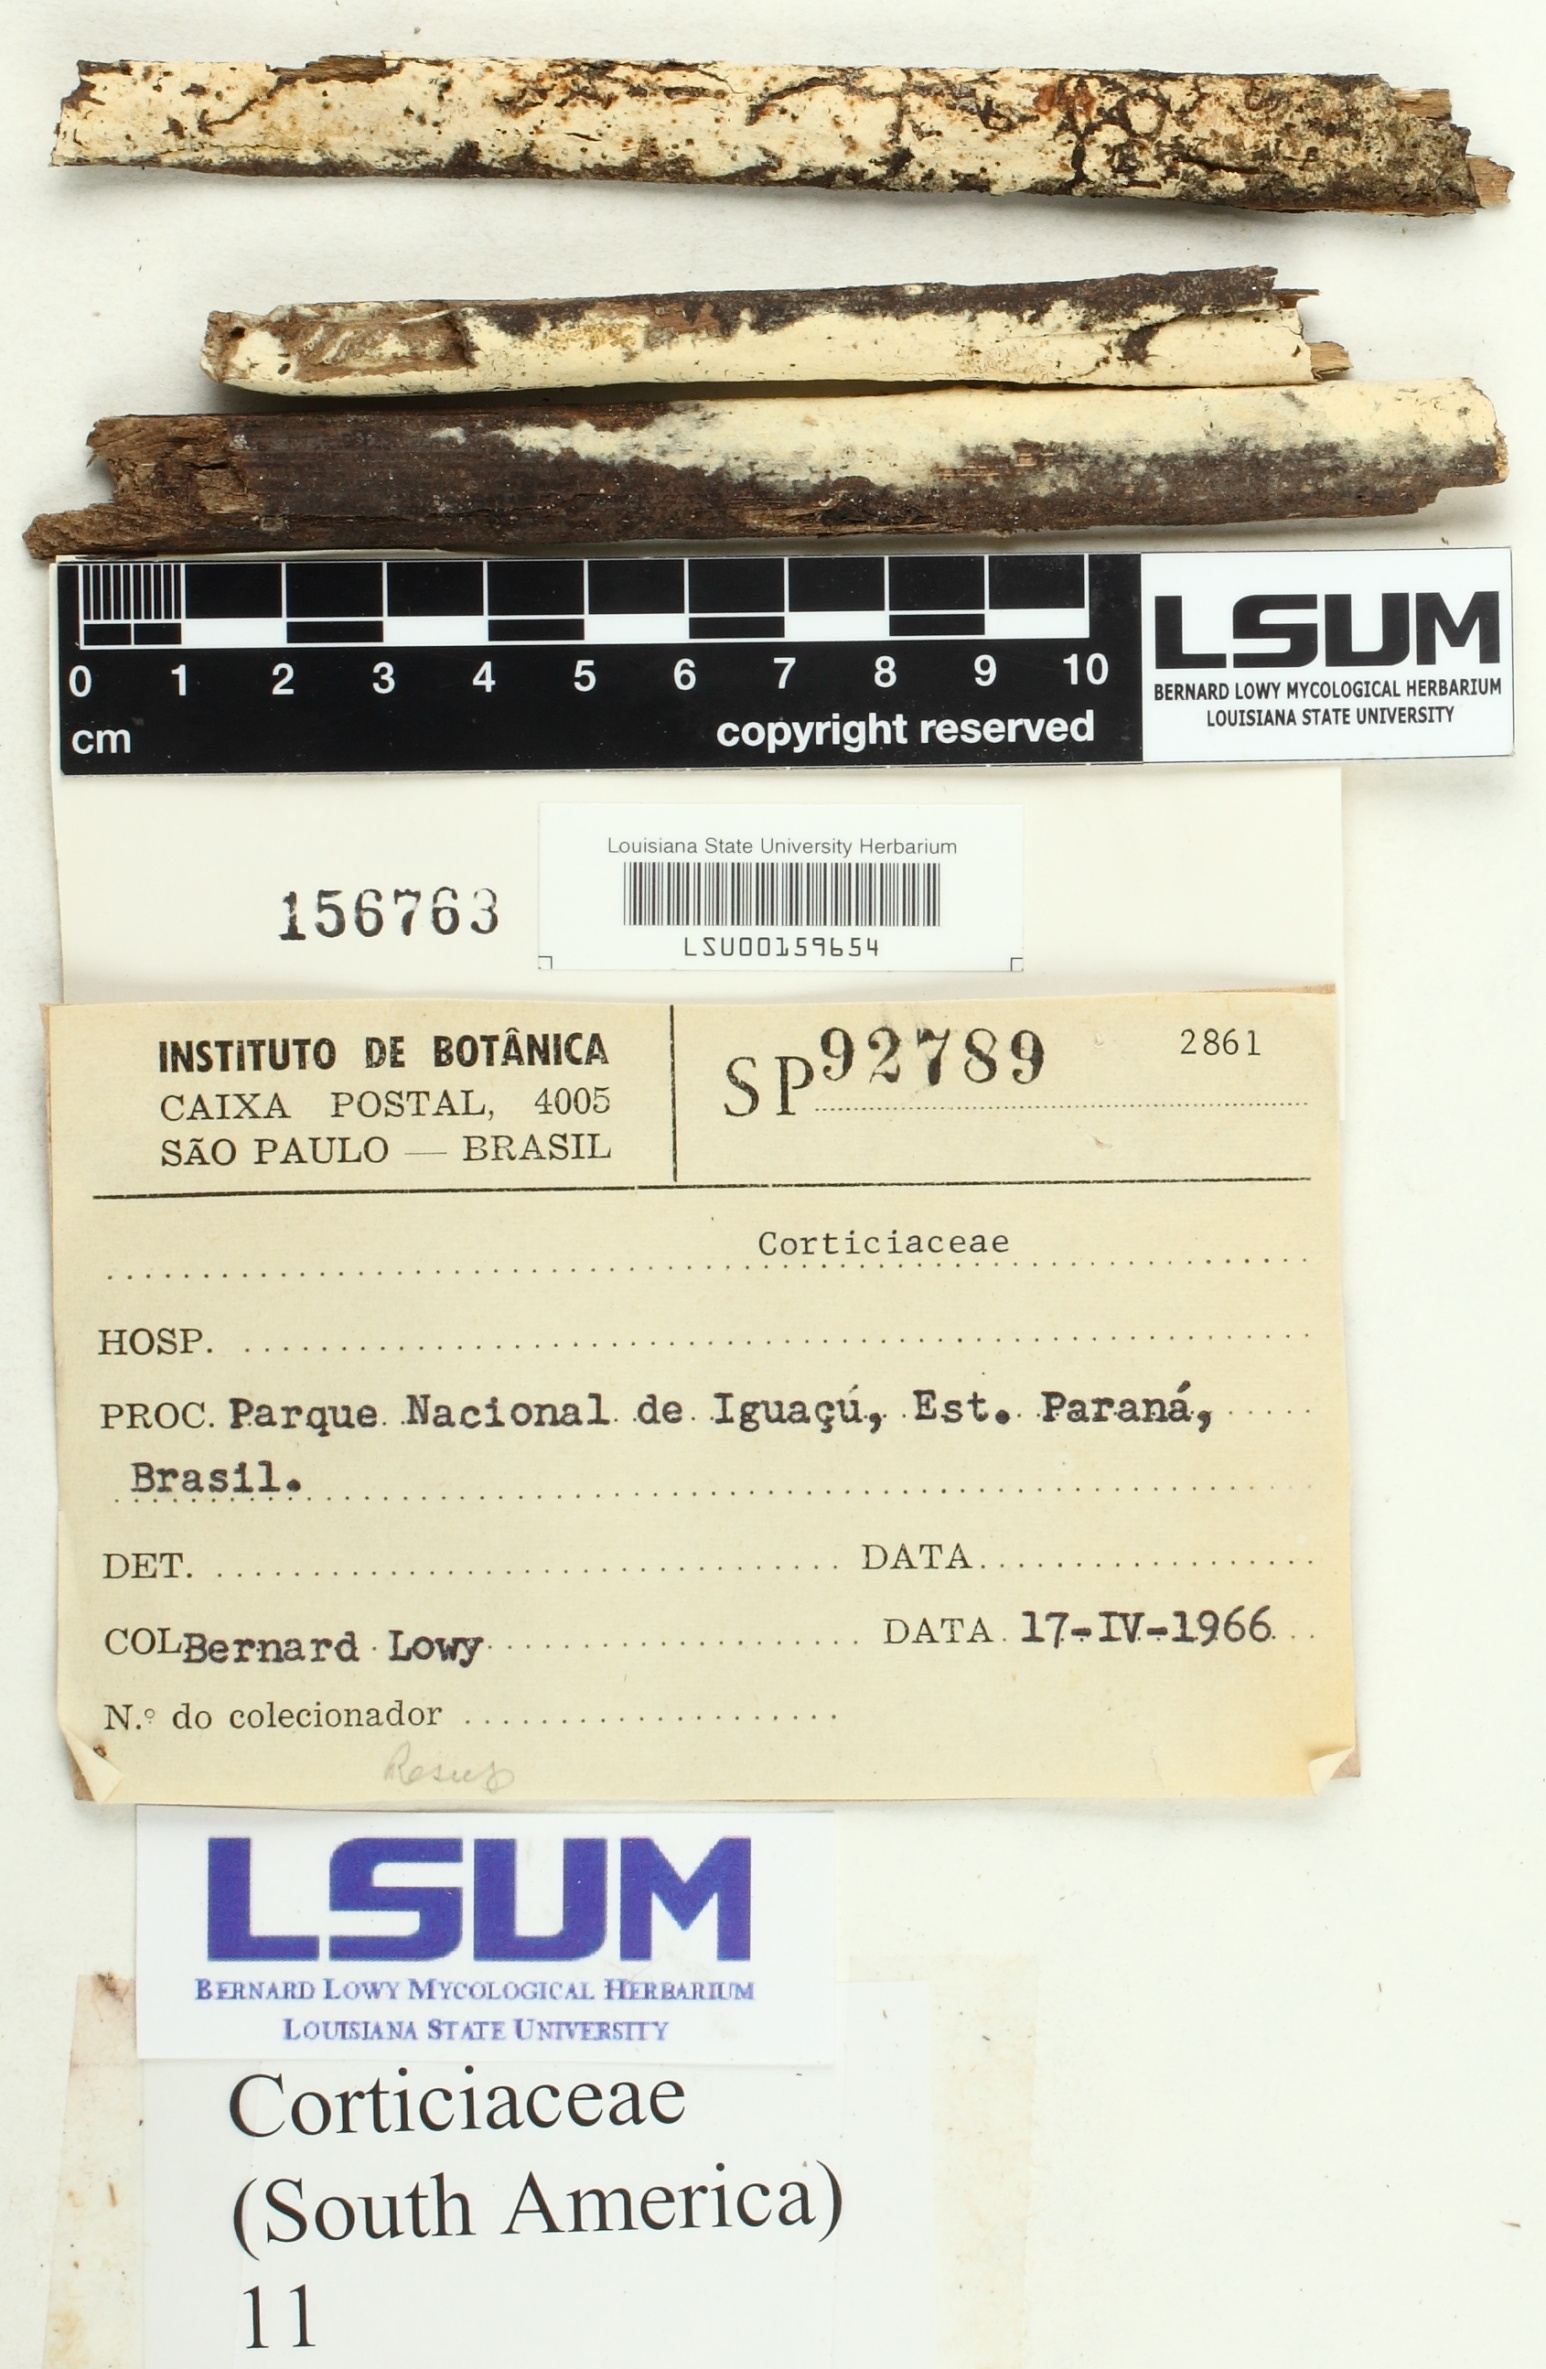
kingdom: Fungi
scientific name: Fungi
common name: Fungi
